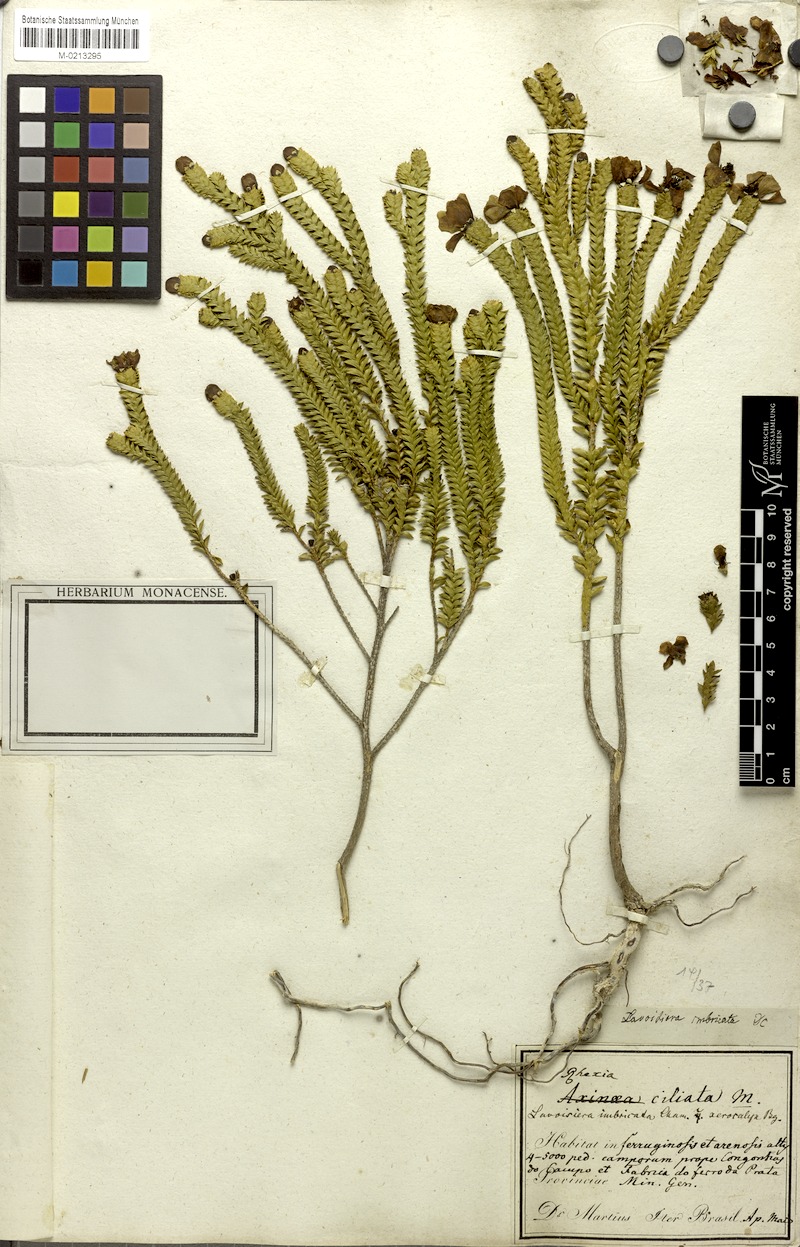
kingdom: Plantae
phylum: Tracheophyta
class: Magnoliopsida
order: Myrtales
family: Melastomataceae
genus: Microlicia
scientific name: Microlicia cataphracta
